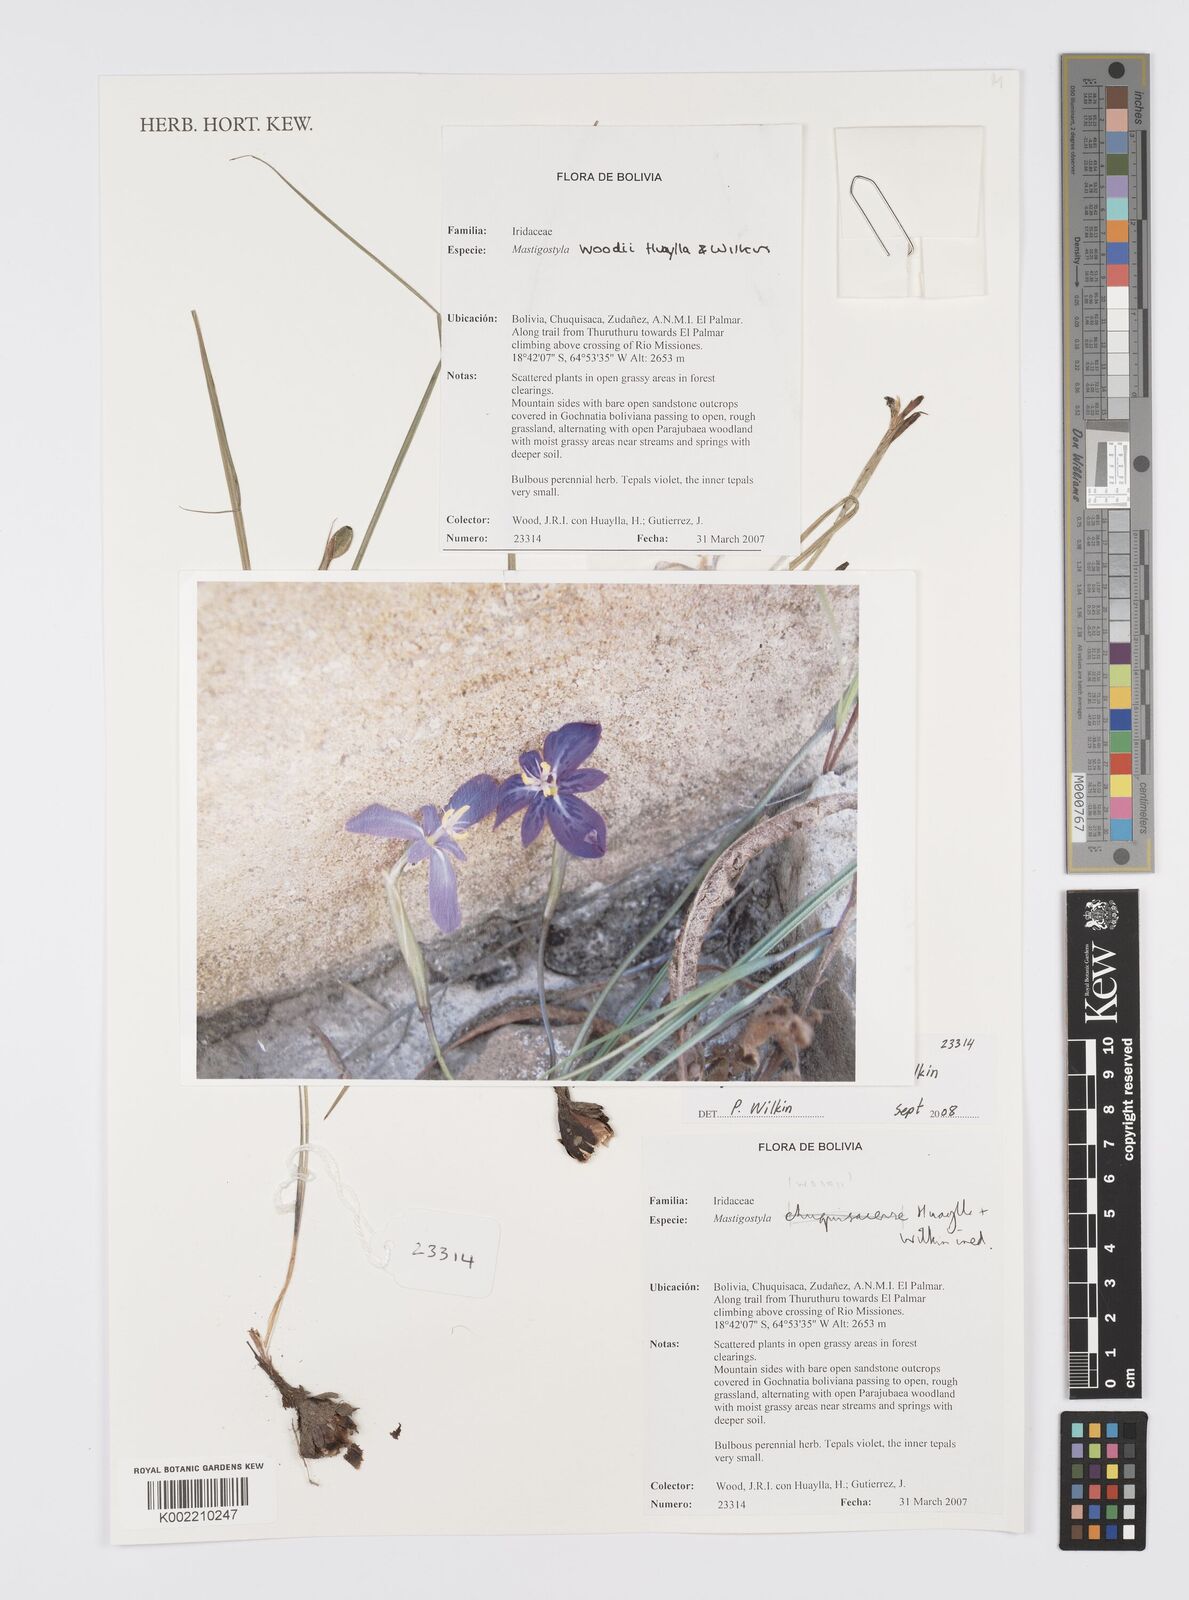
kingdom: Plantae
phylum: Tracheophyta
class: Liliopsida
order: Asparagales
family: Iridaceae
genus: Mastigostyla
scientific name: Mastigostyla woodii
